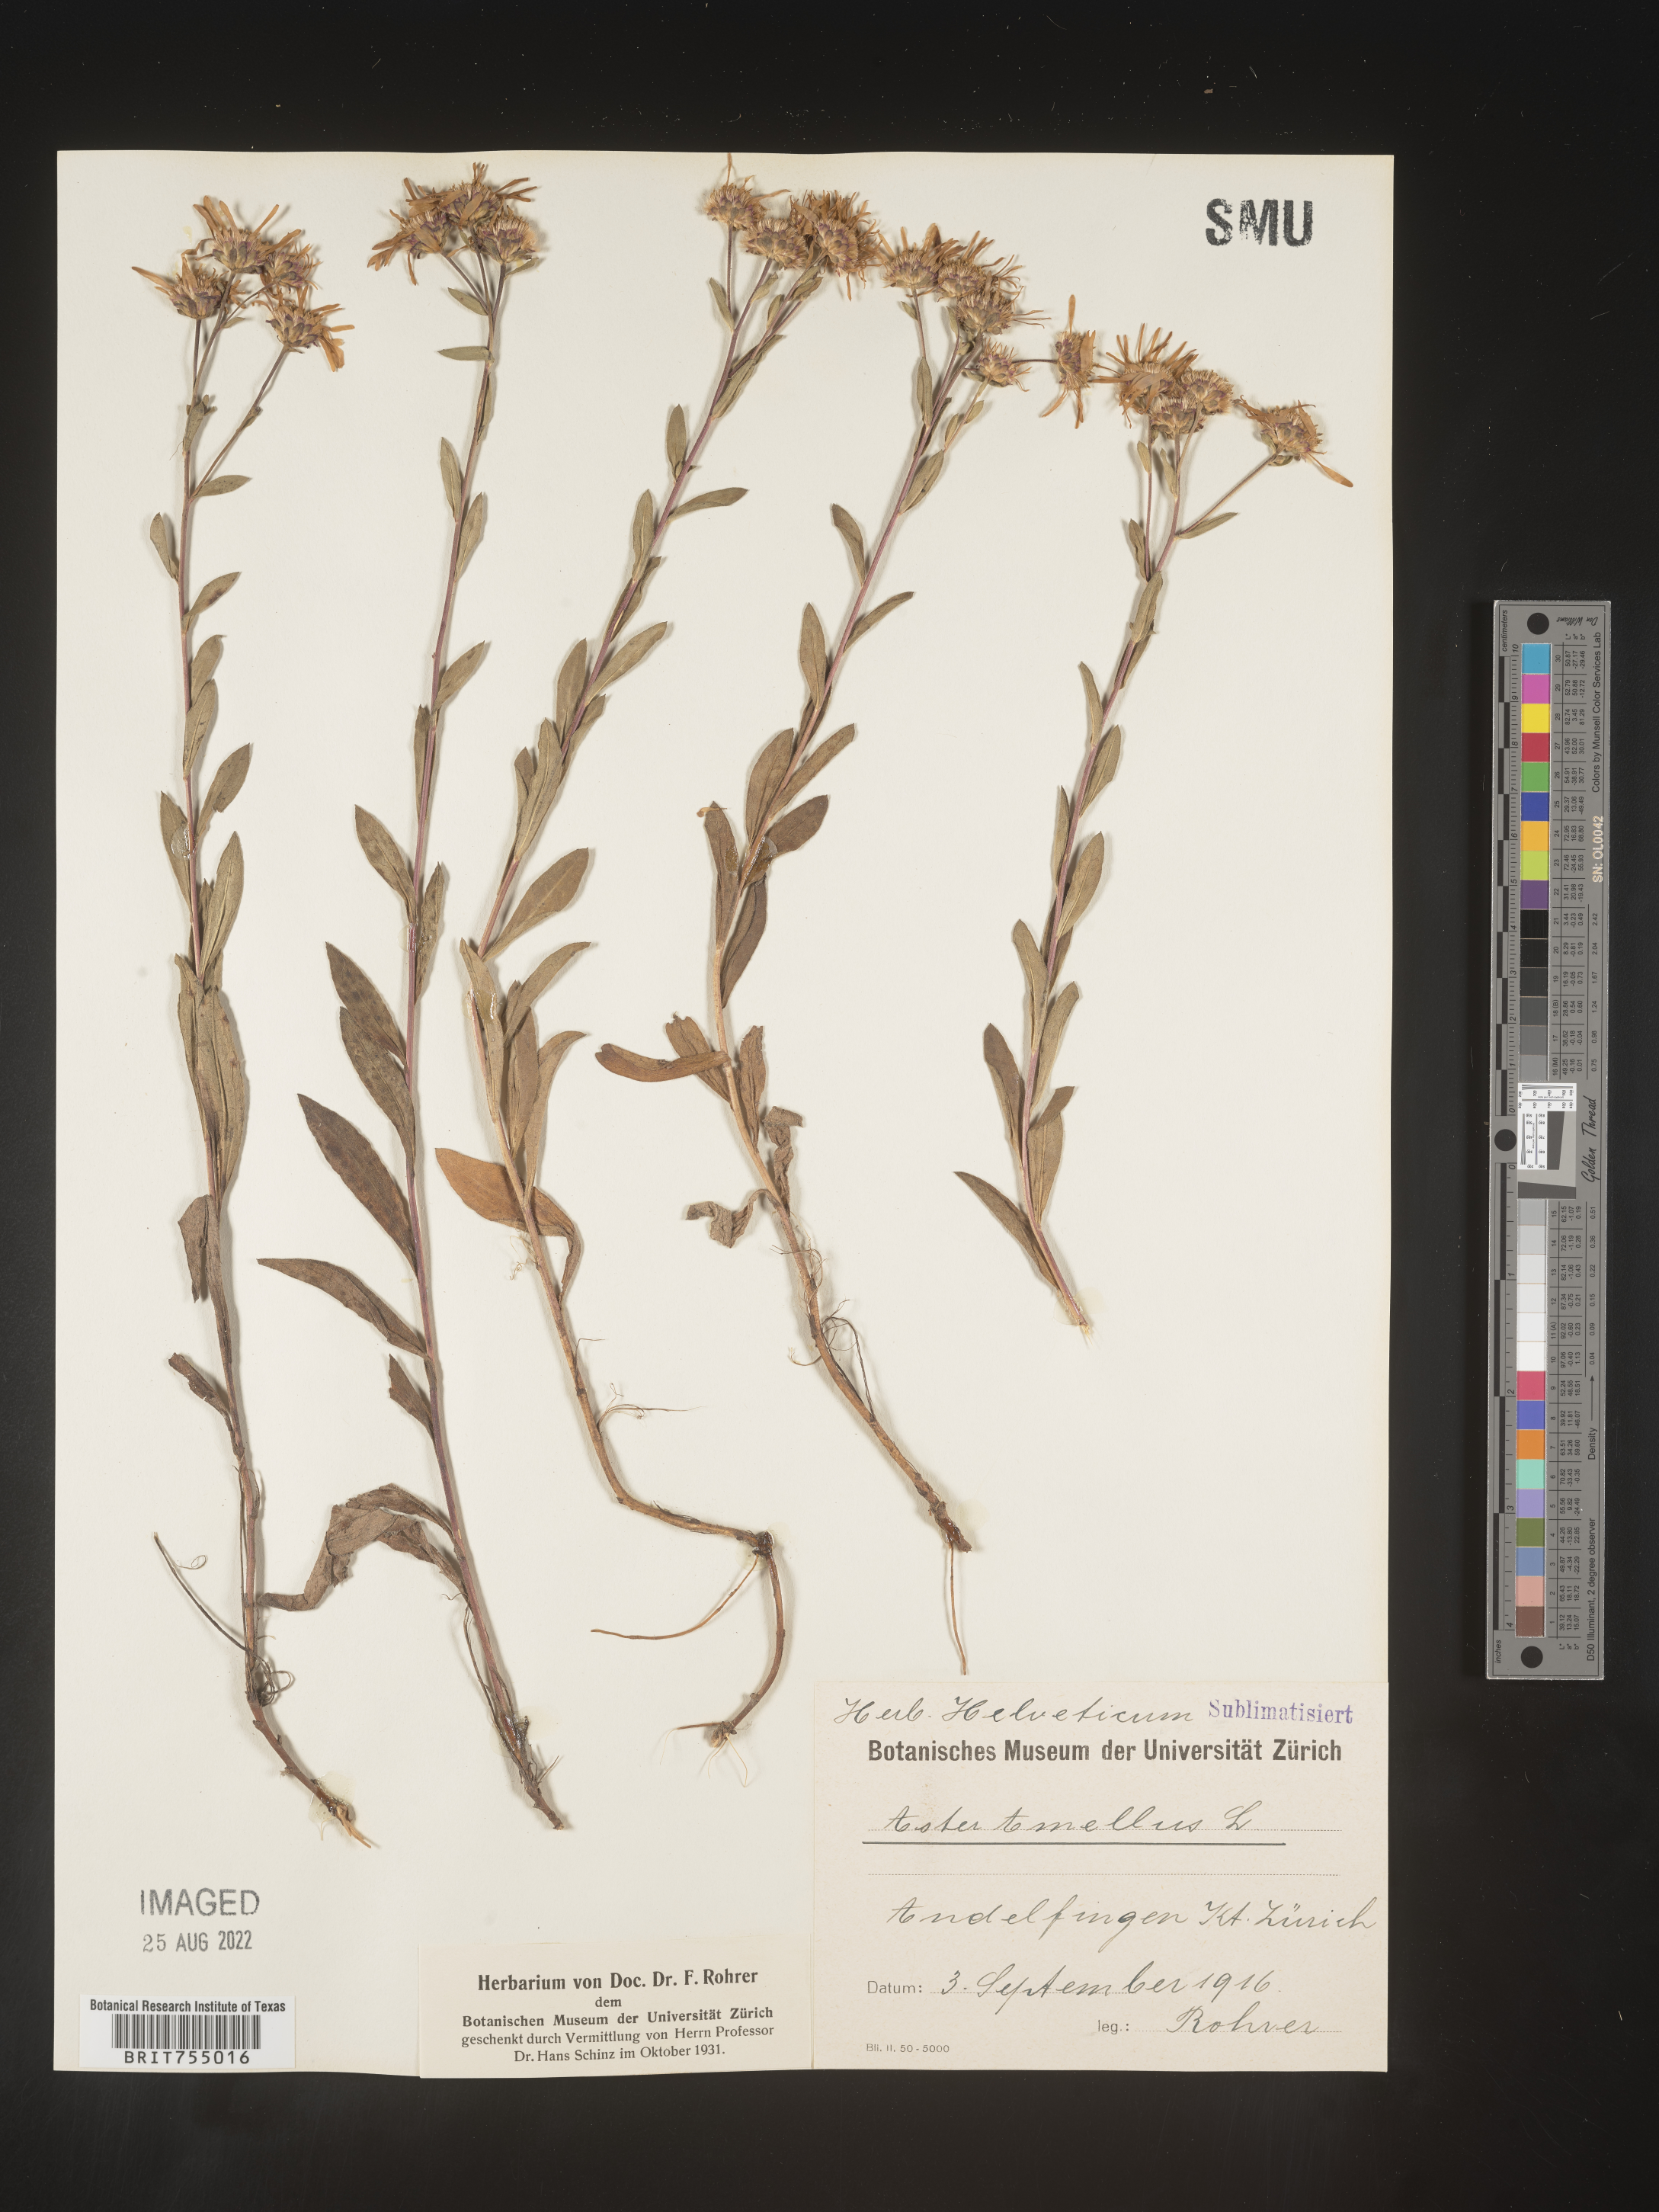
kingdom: Plantae
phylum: Tracheophyta
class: Magnoliopsida
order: Asterales
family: Asteraceae
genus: Symphyotrichum
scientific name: Symphyotrichum
